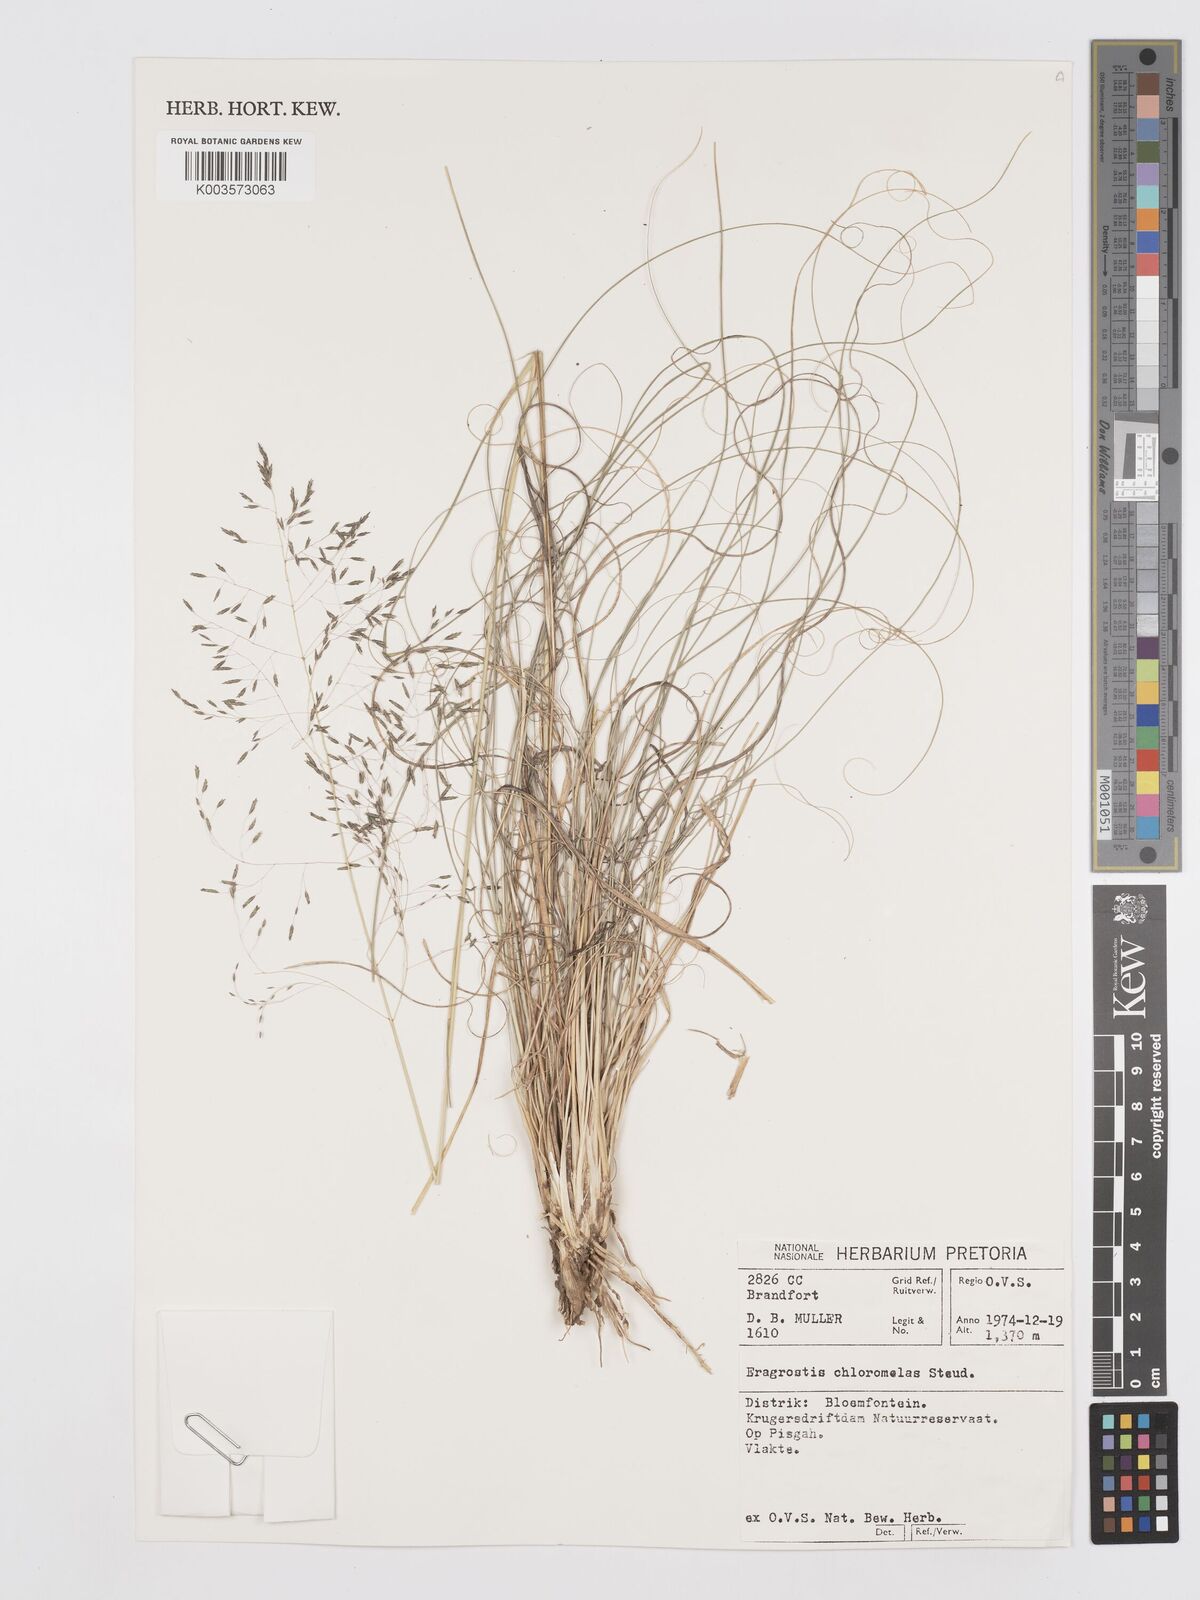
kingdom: Plantae
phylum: Tracheophyta
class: Liliopsida
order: Poales
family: Poaceae
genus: Eragrostis
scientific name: Eragrostis curvula
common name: African love-grass
